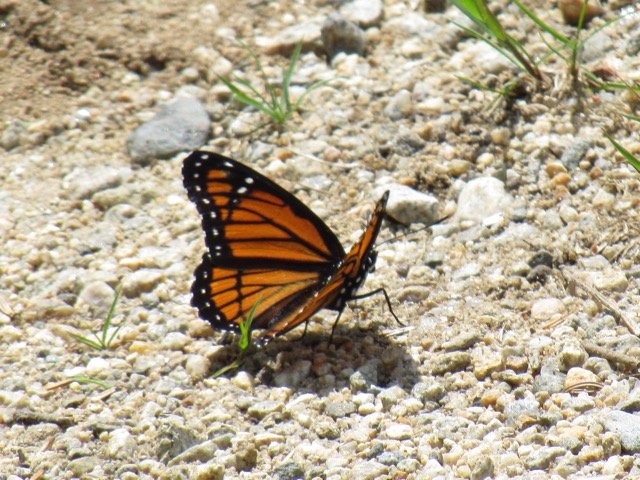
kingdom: Animalia
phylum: Arthropoda
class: Insecta
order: Lepidoptera
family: Nymphalidae
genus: Limenitis
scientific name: Limenitis archippus
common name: Viceroy
